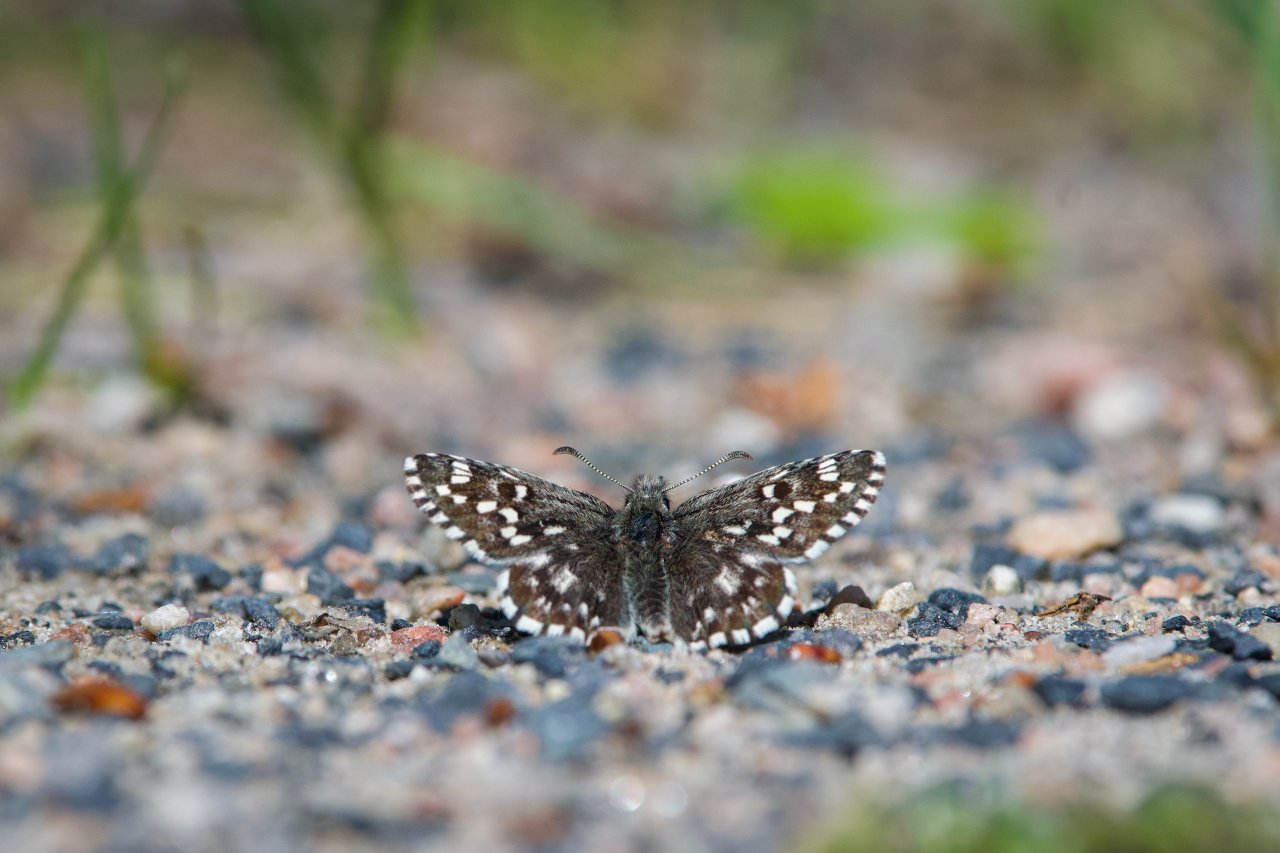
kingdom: Animalia
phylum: Arthropoda
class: Insecta
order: Lepidoptera
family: Hesperiidae
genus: Pyrgus
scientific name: Pyrgus centaureae
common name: Grizzled Skipper
